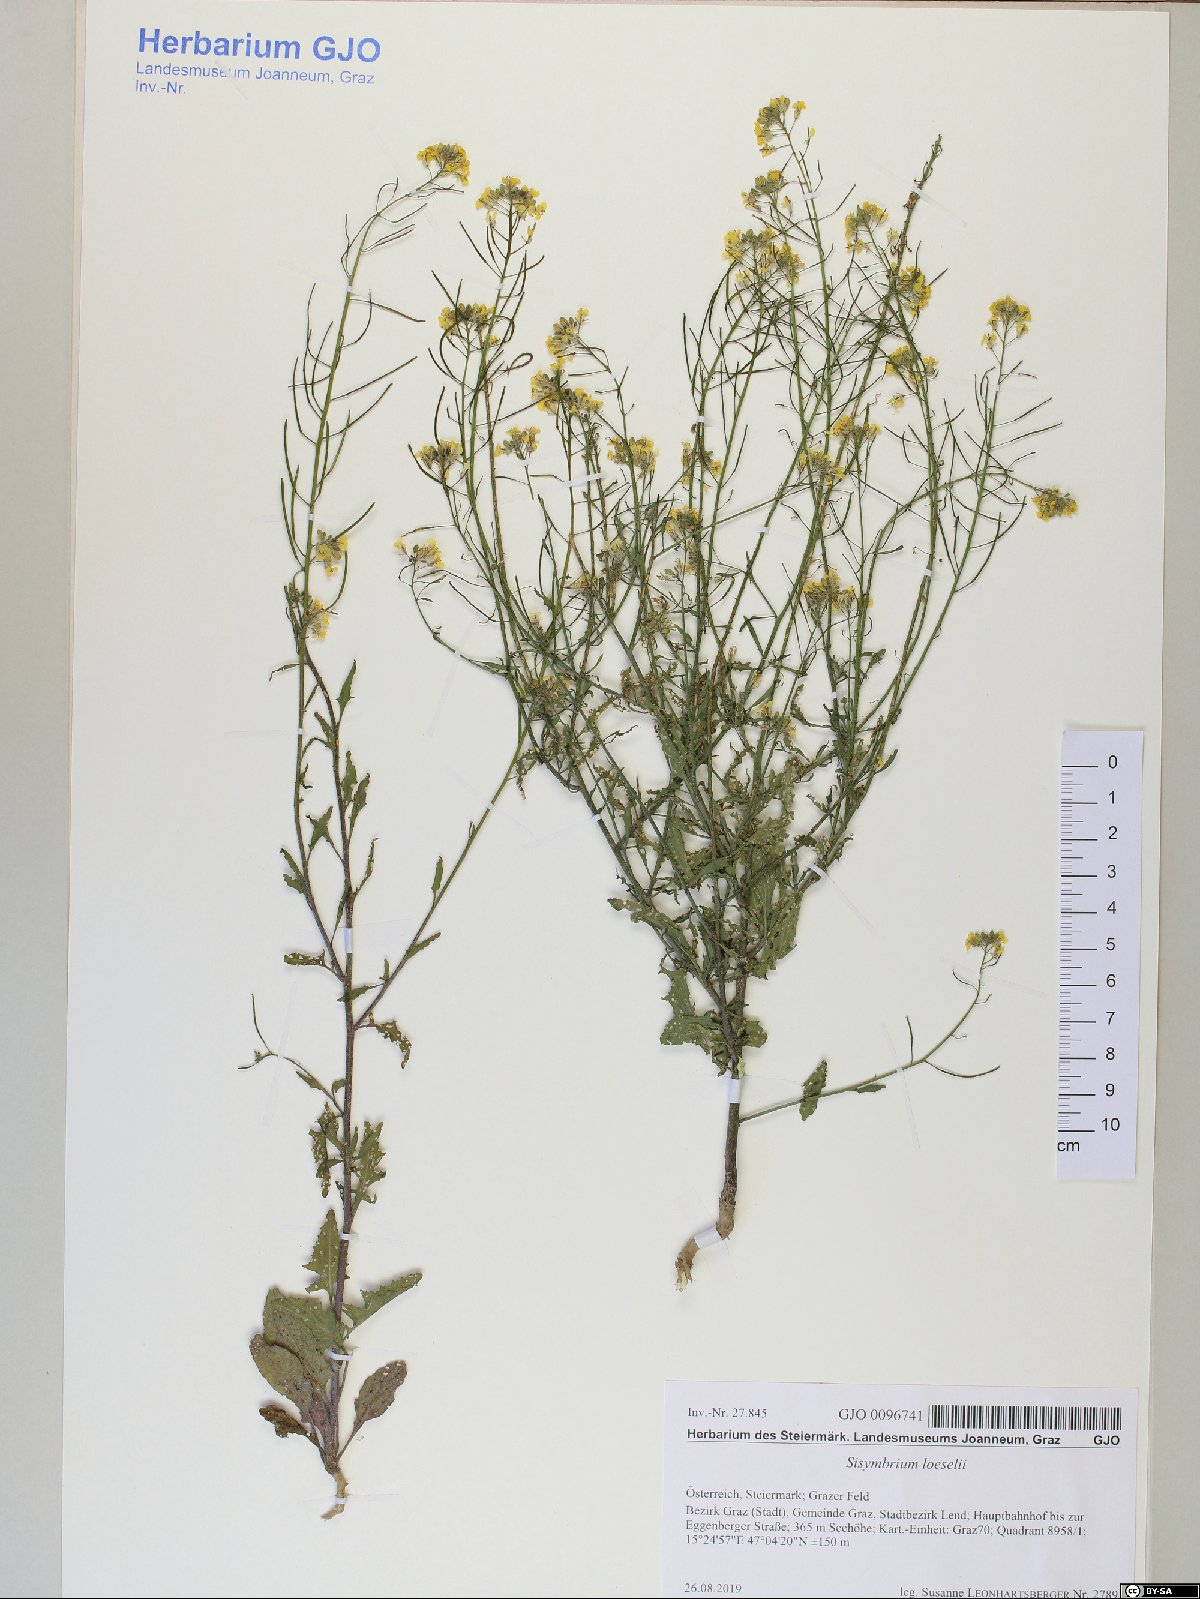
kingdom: Plantae
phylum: Tracheophyta
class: Magnoliopsida
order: Brassicales
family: Brassicaceae
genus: Sisymbrium
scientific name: Sisymbrium loeselii
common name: False london-rocket
